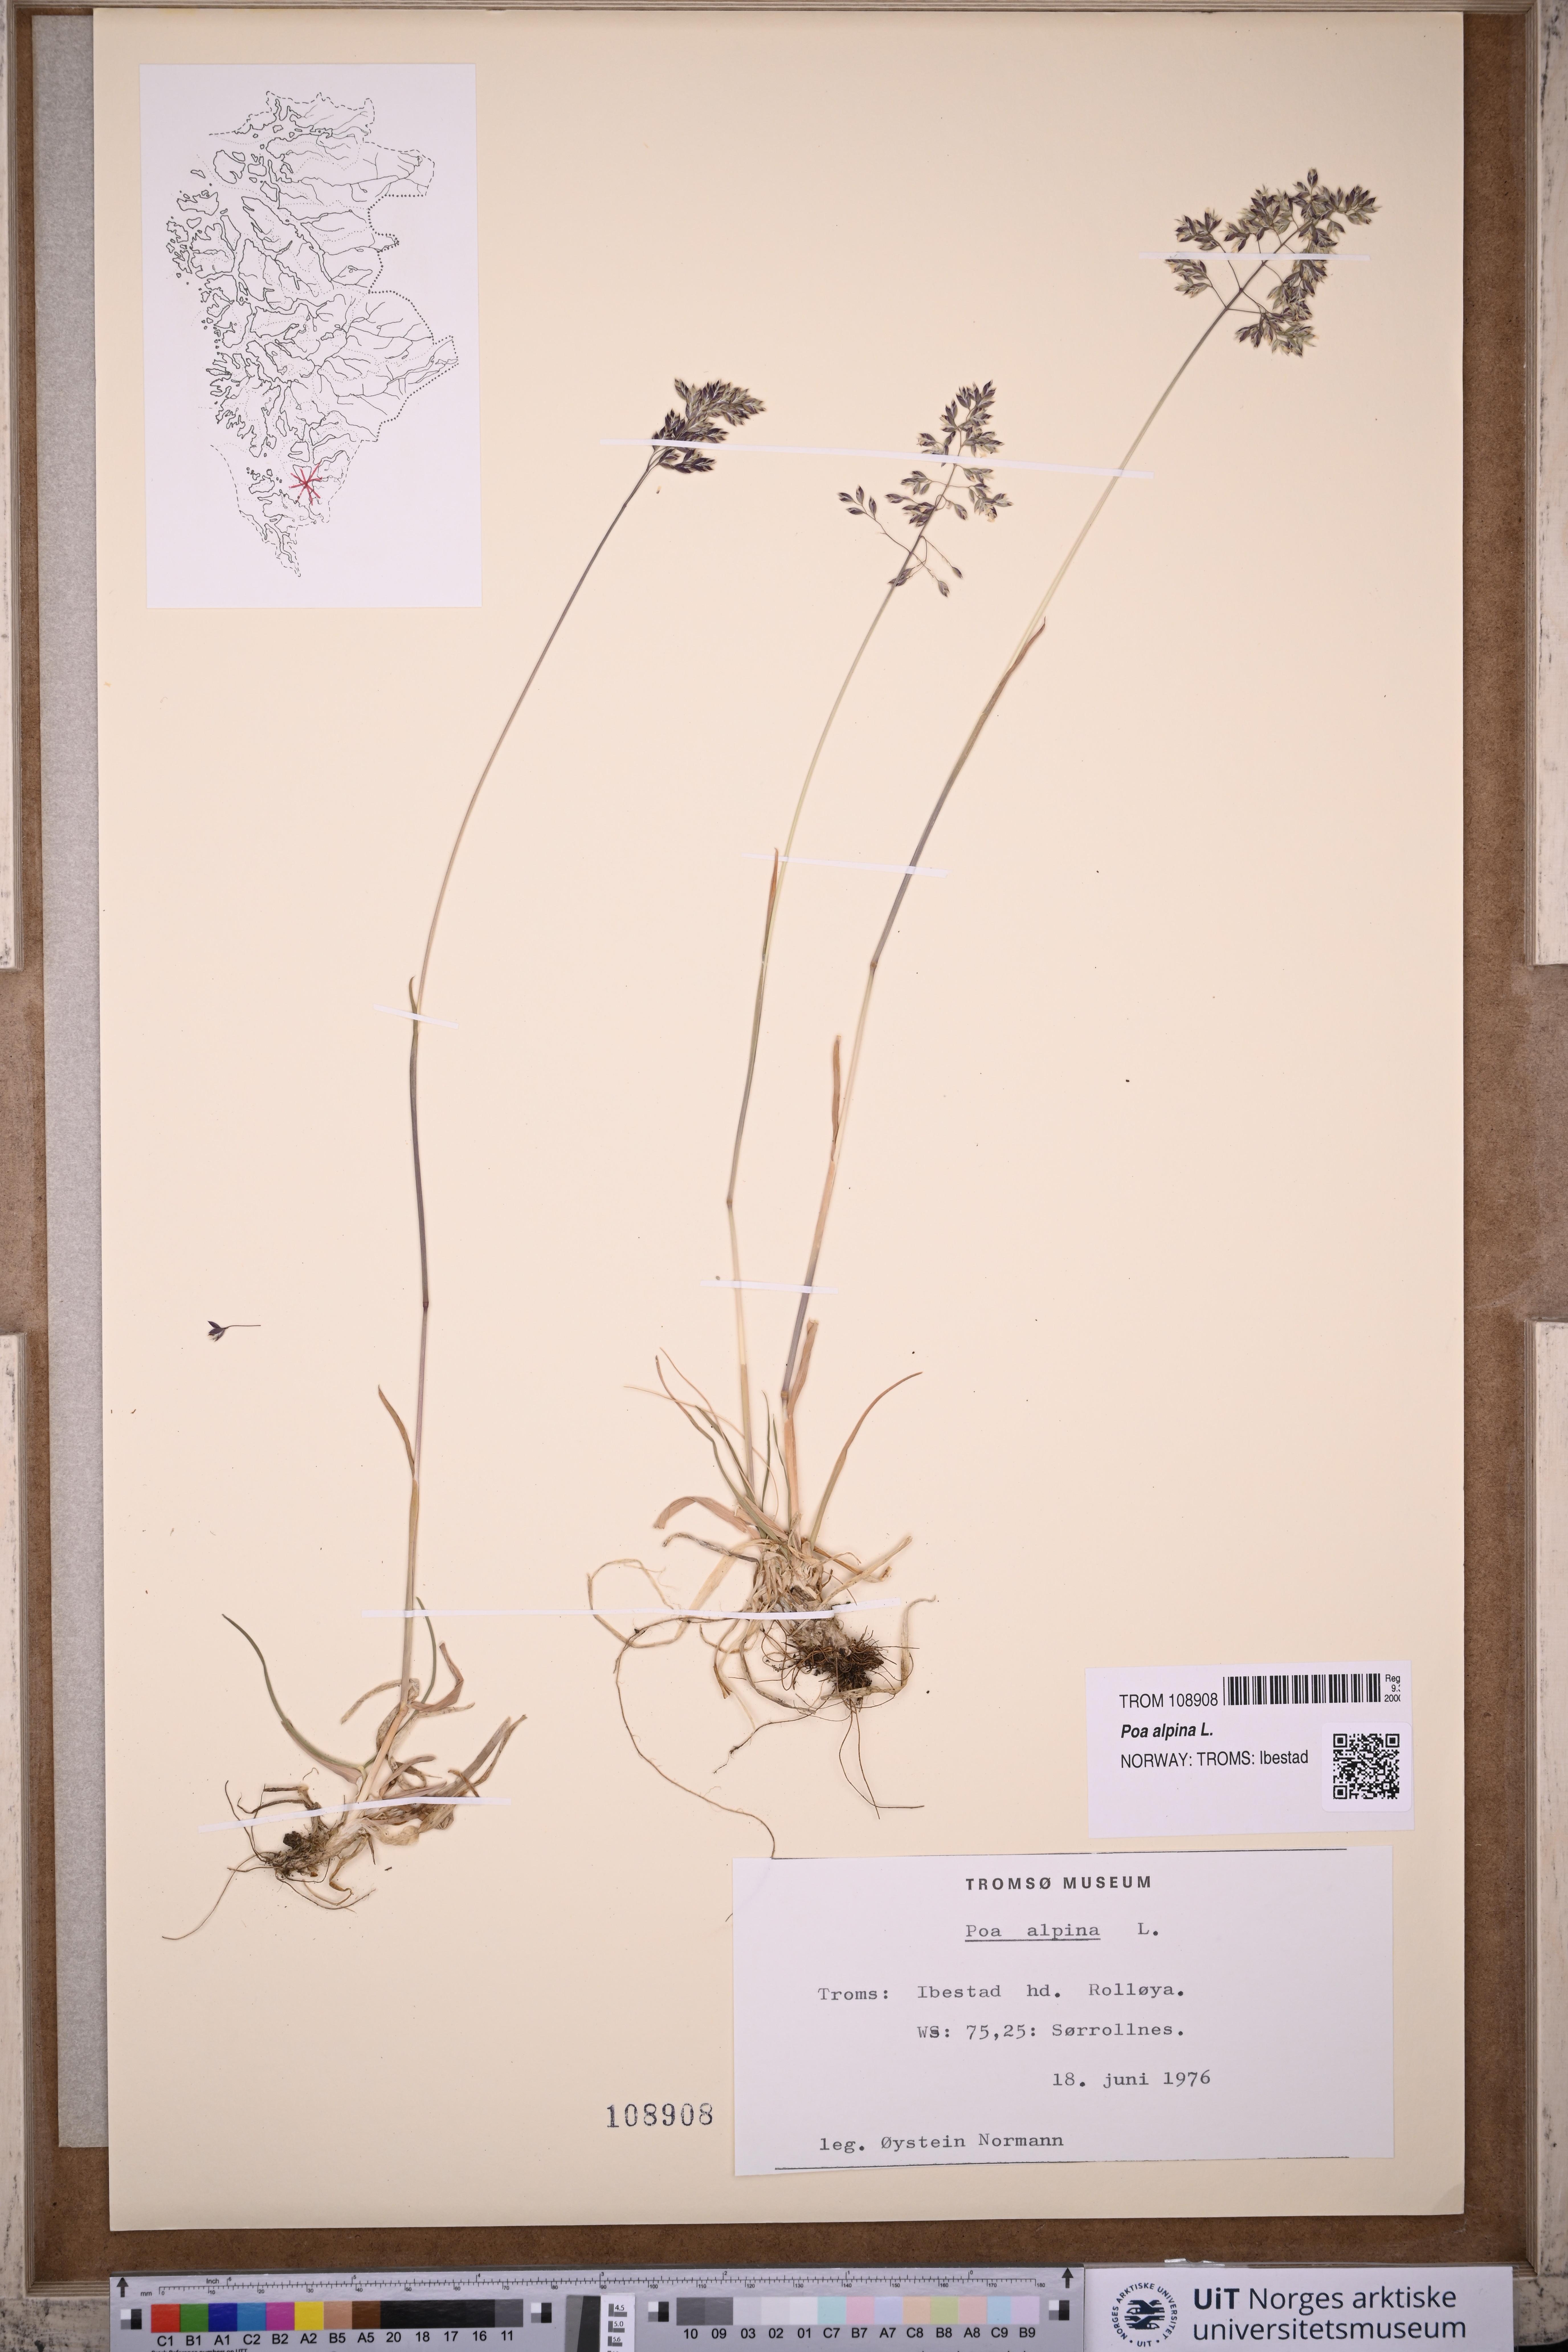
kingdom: Plantae
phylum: Tracheophyta
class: Liliopsida
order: Poales
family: Poaceae
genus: Poa
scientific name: Poa alpina
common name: Alpine bluegrass
